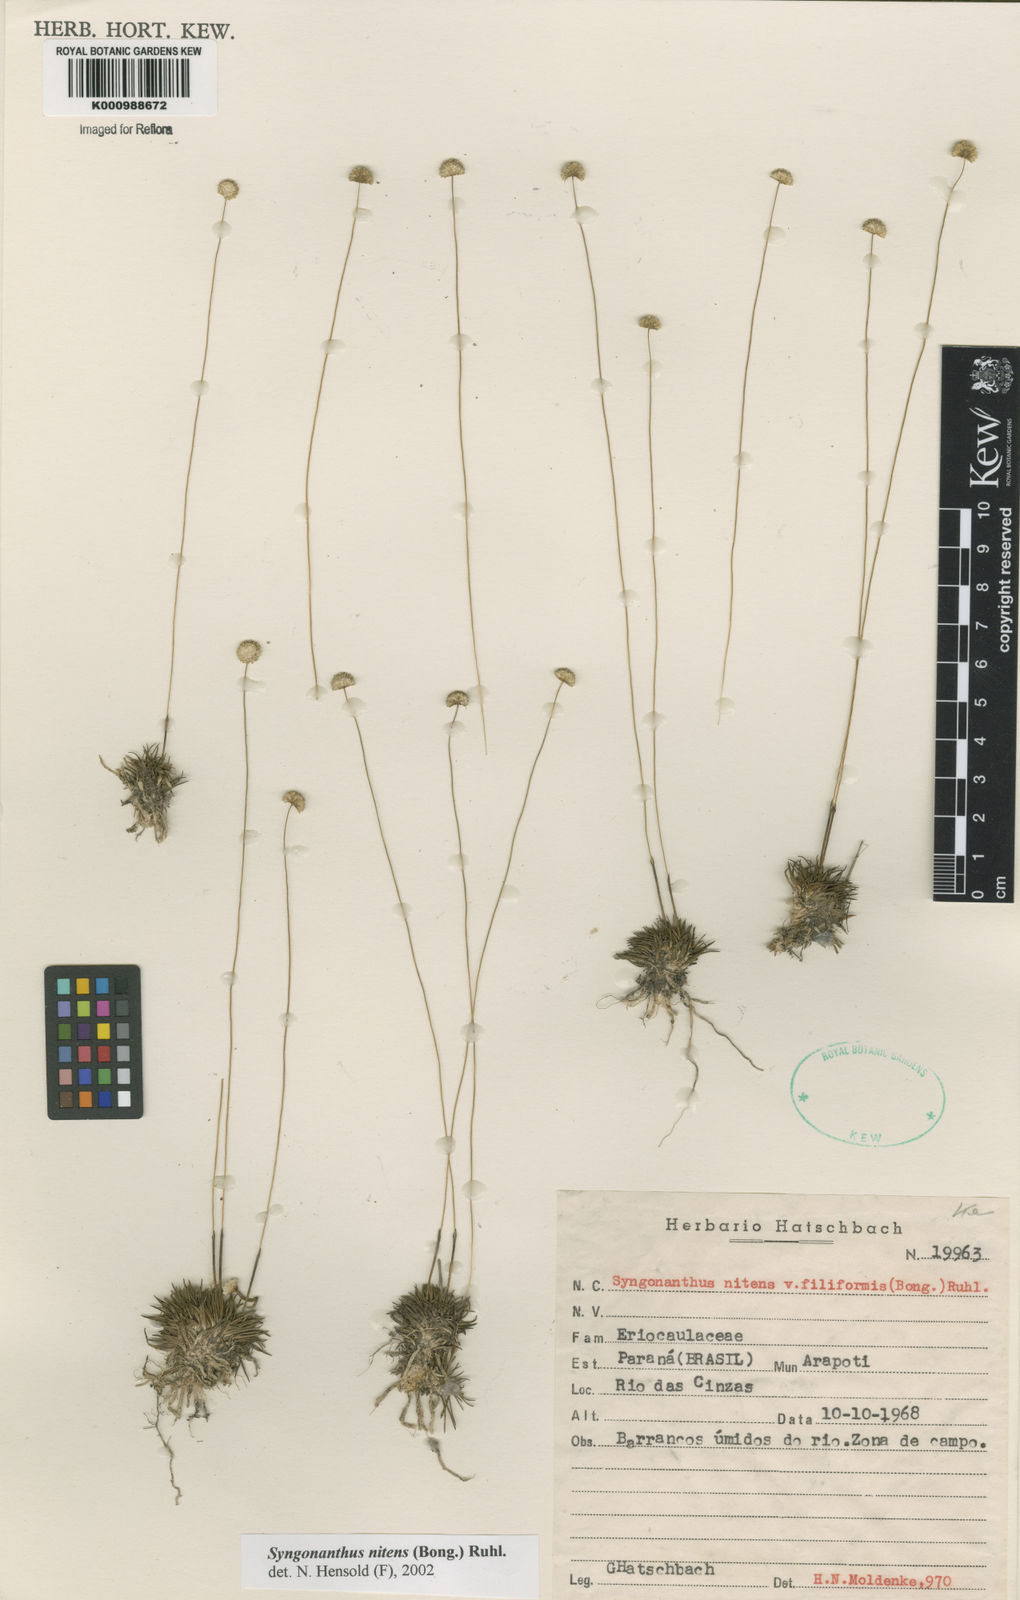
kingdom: Plantae
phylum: Tracheophyta
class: Liliopsida
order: Poales
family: Eriocaulaceae
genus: Syngonanthus
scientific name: Syngonanthus nitens
